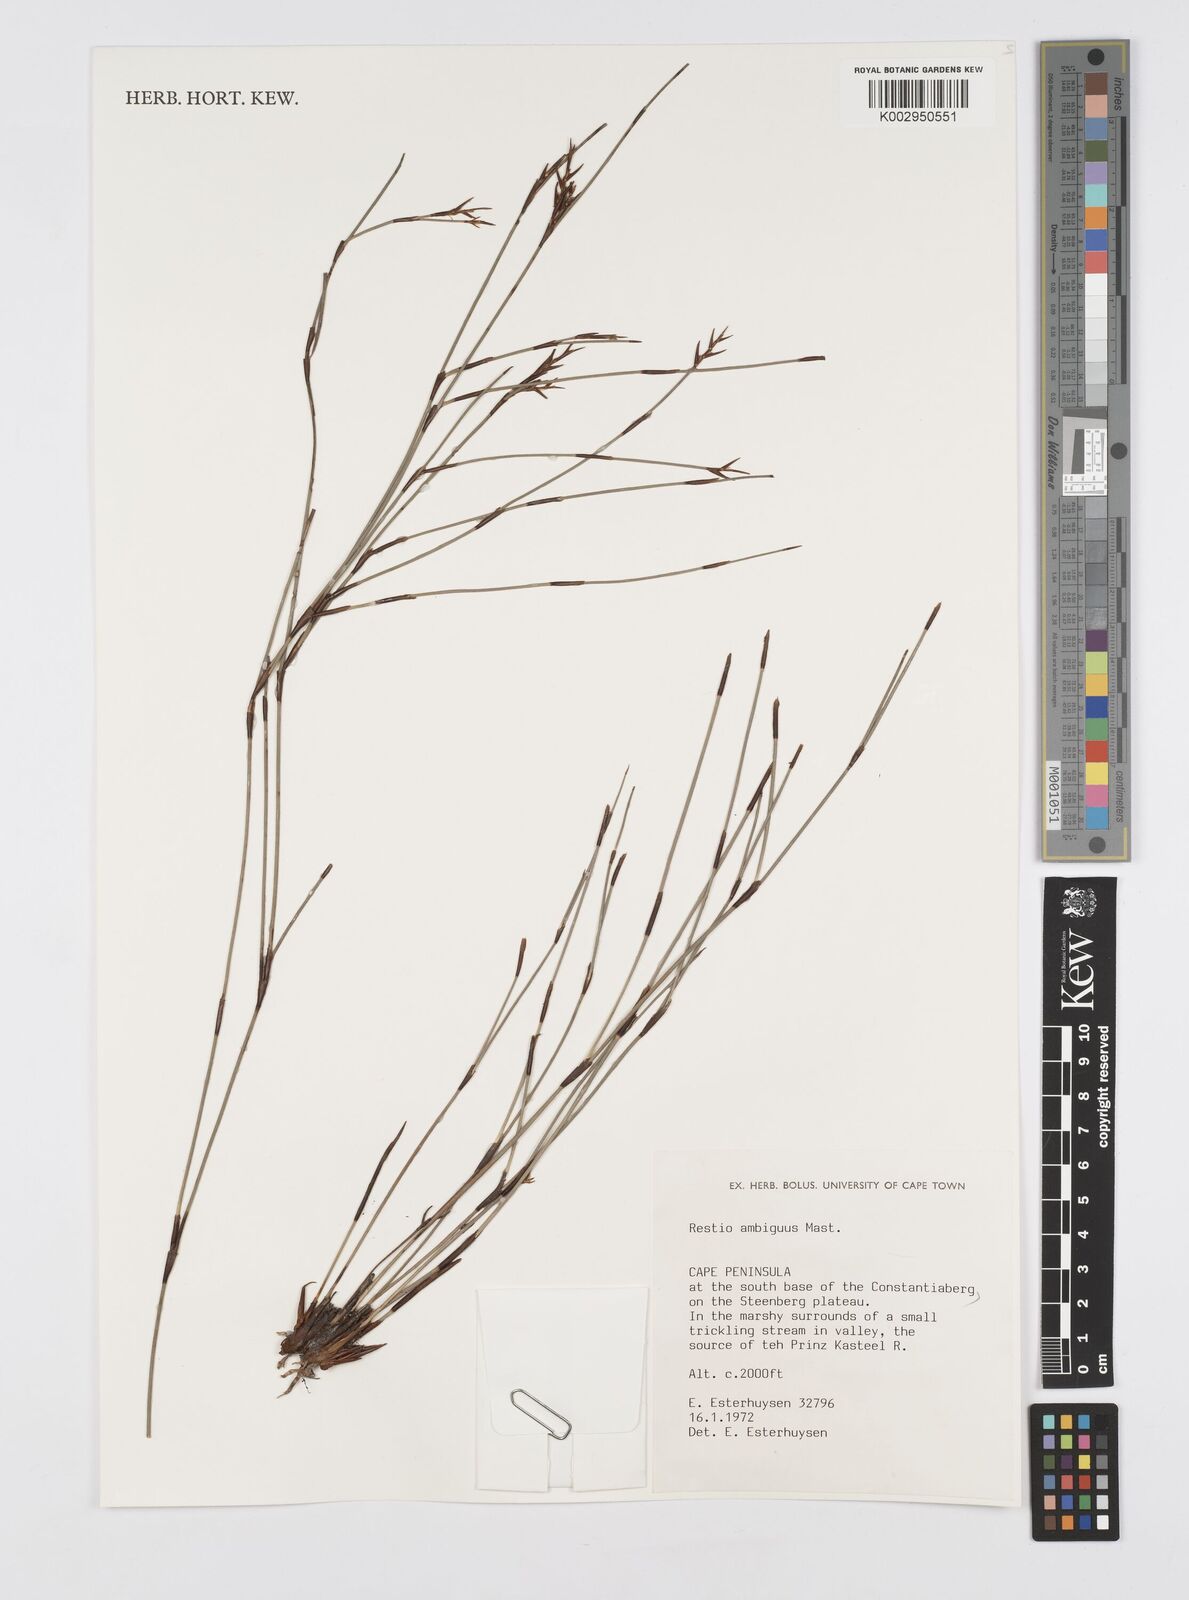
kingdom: Plantae
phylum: Tracheophyta
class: Liliopsida
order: Poales
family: Restionaceae
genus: Soroveta
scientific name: Soroveta ambigua
